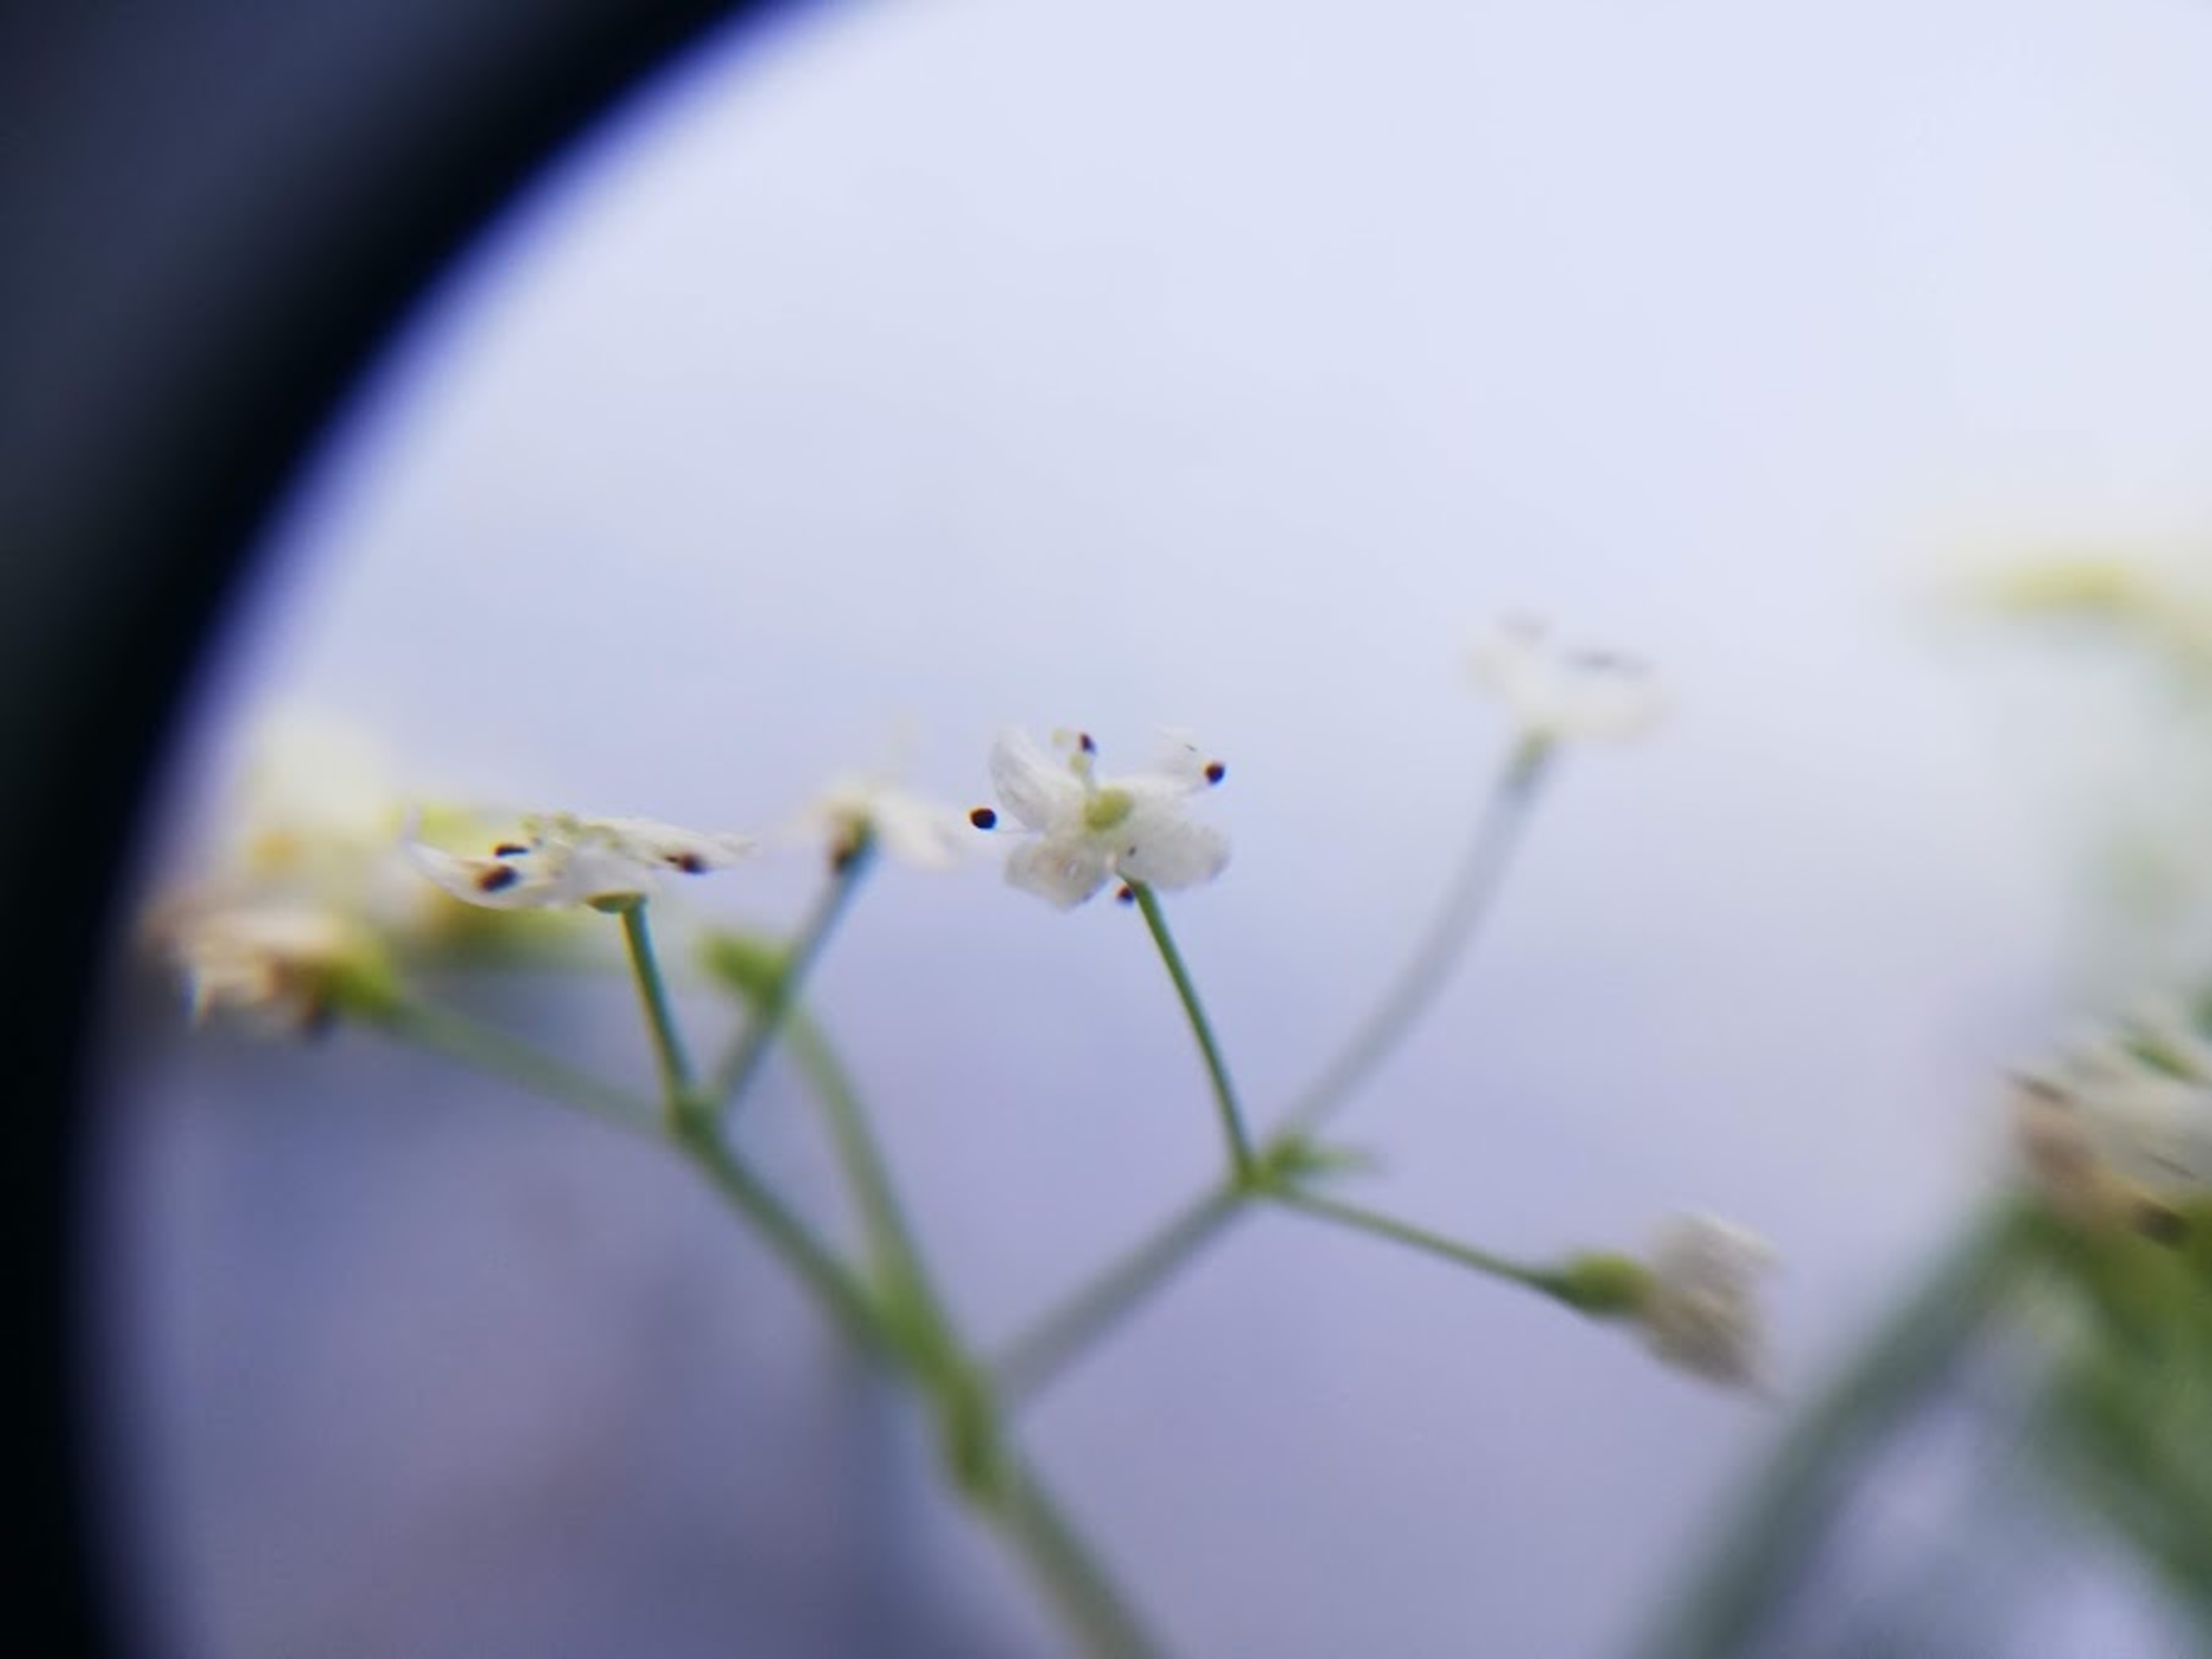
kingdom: Plantae
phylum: Tracheophyta
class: Magnoliopsida
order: Gentianales
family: Rubiaceae
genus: Galium
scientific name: Galium mollugo
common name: Hvid snerre
